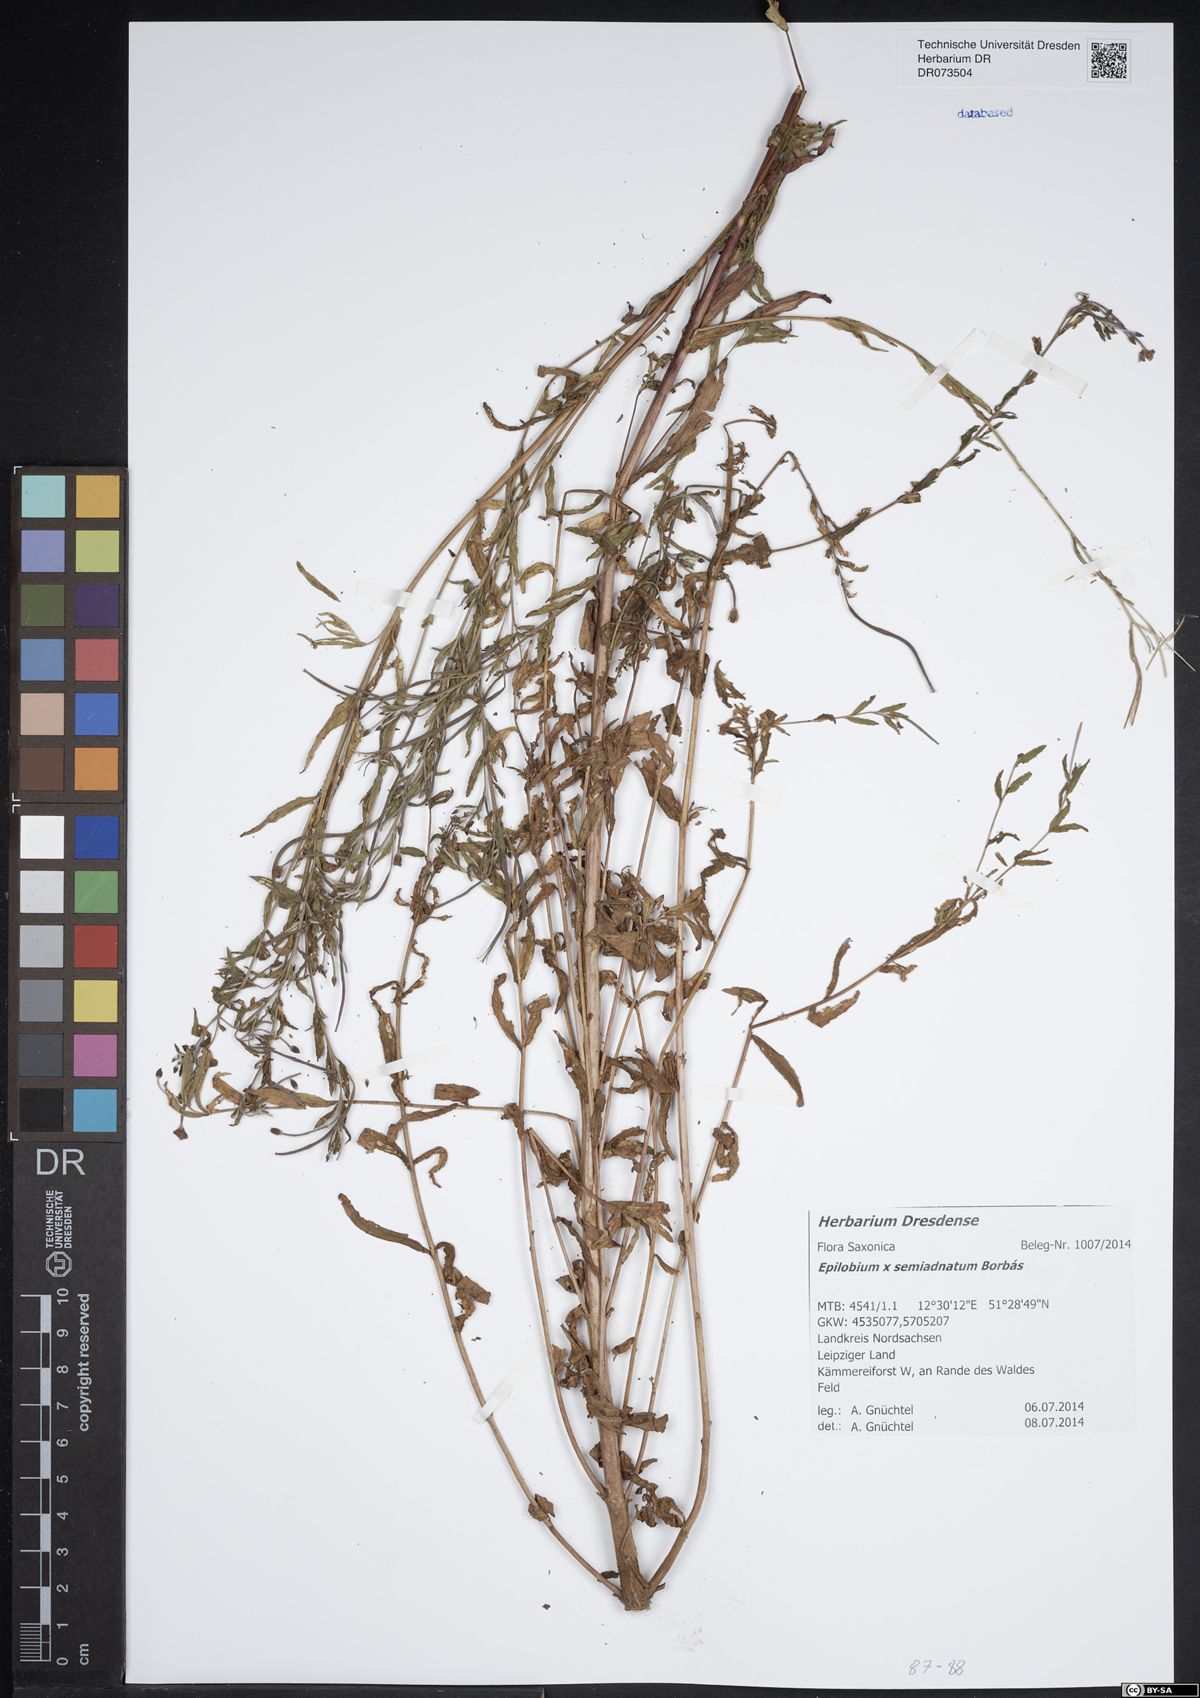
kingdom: Plantae
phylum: Tracheophyta
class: Magnoliopsida
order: Myrtales
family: Onagraceae
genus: Epilobium
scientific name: Epilobium semiadnatum
